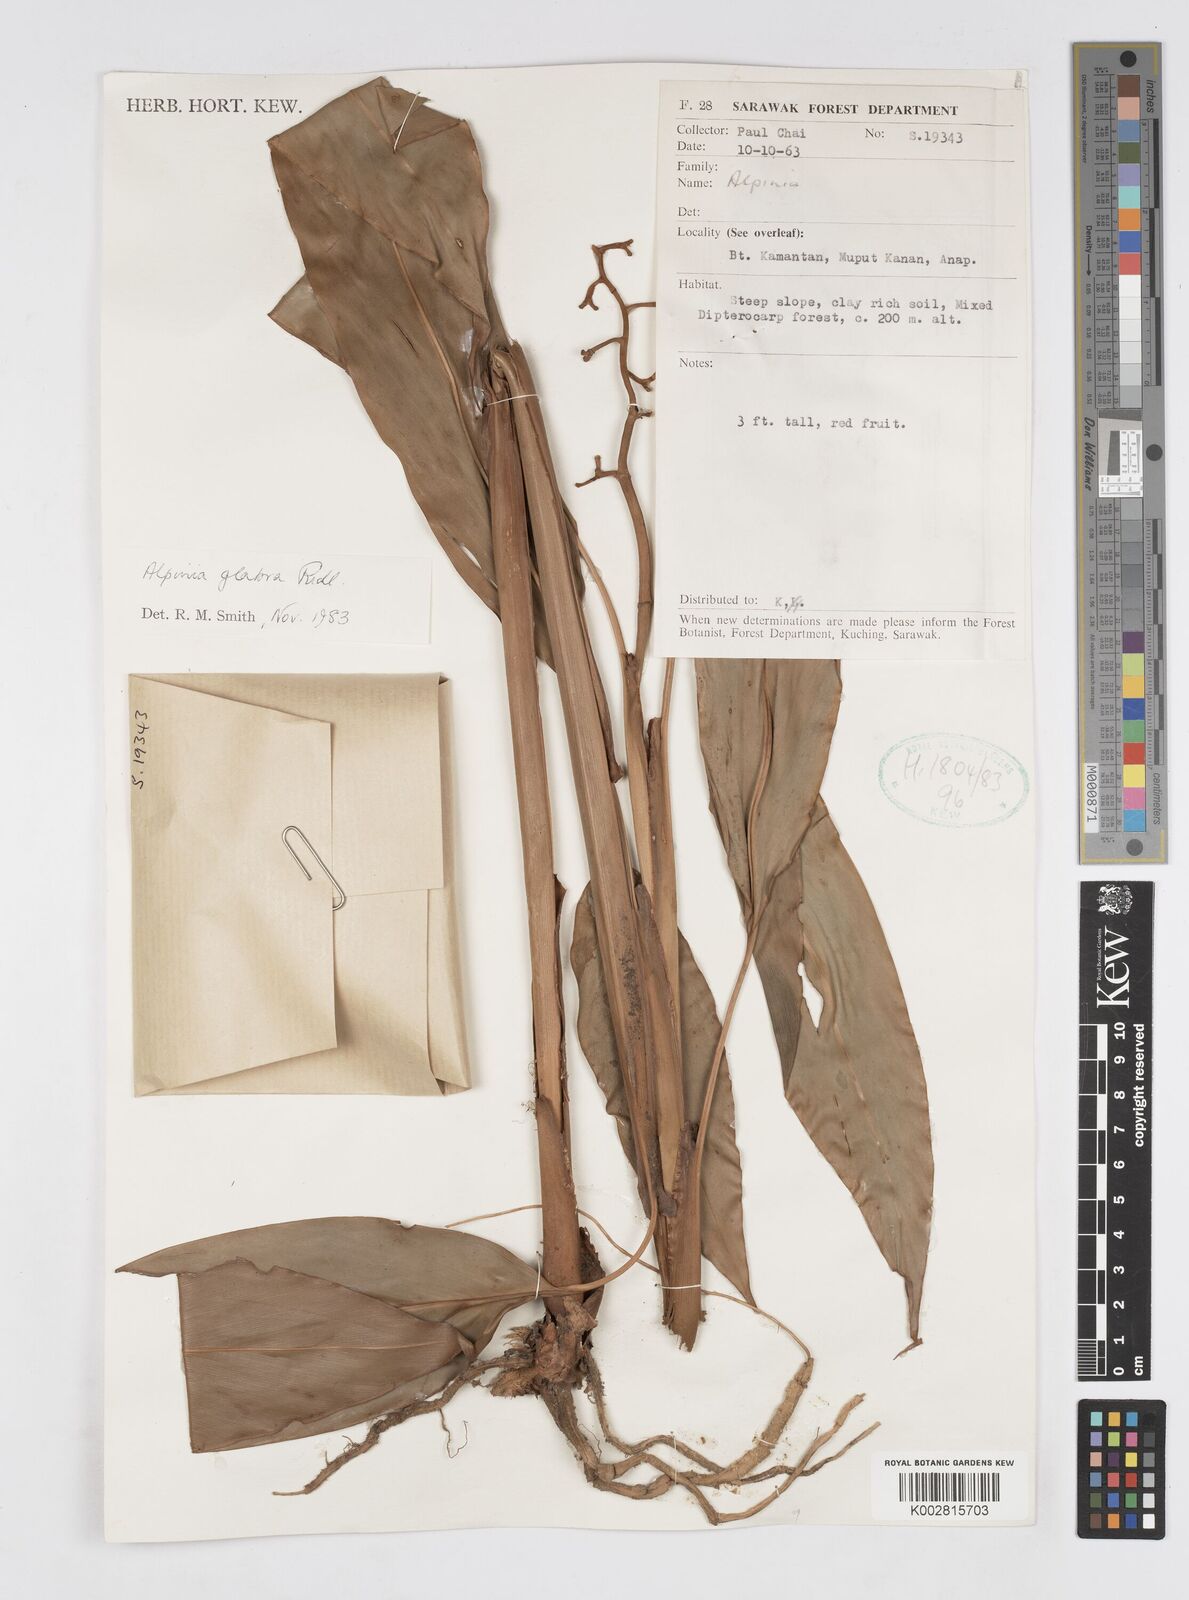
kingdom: Plantae
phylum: Tracheophyta
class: Liliopsida
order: Zingiberales
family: Zingiberaceae
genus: Alpinia
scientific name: Alpinia glabra
